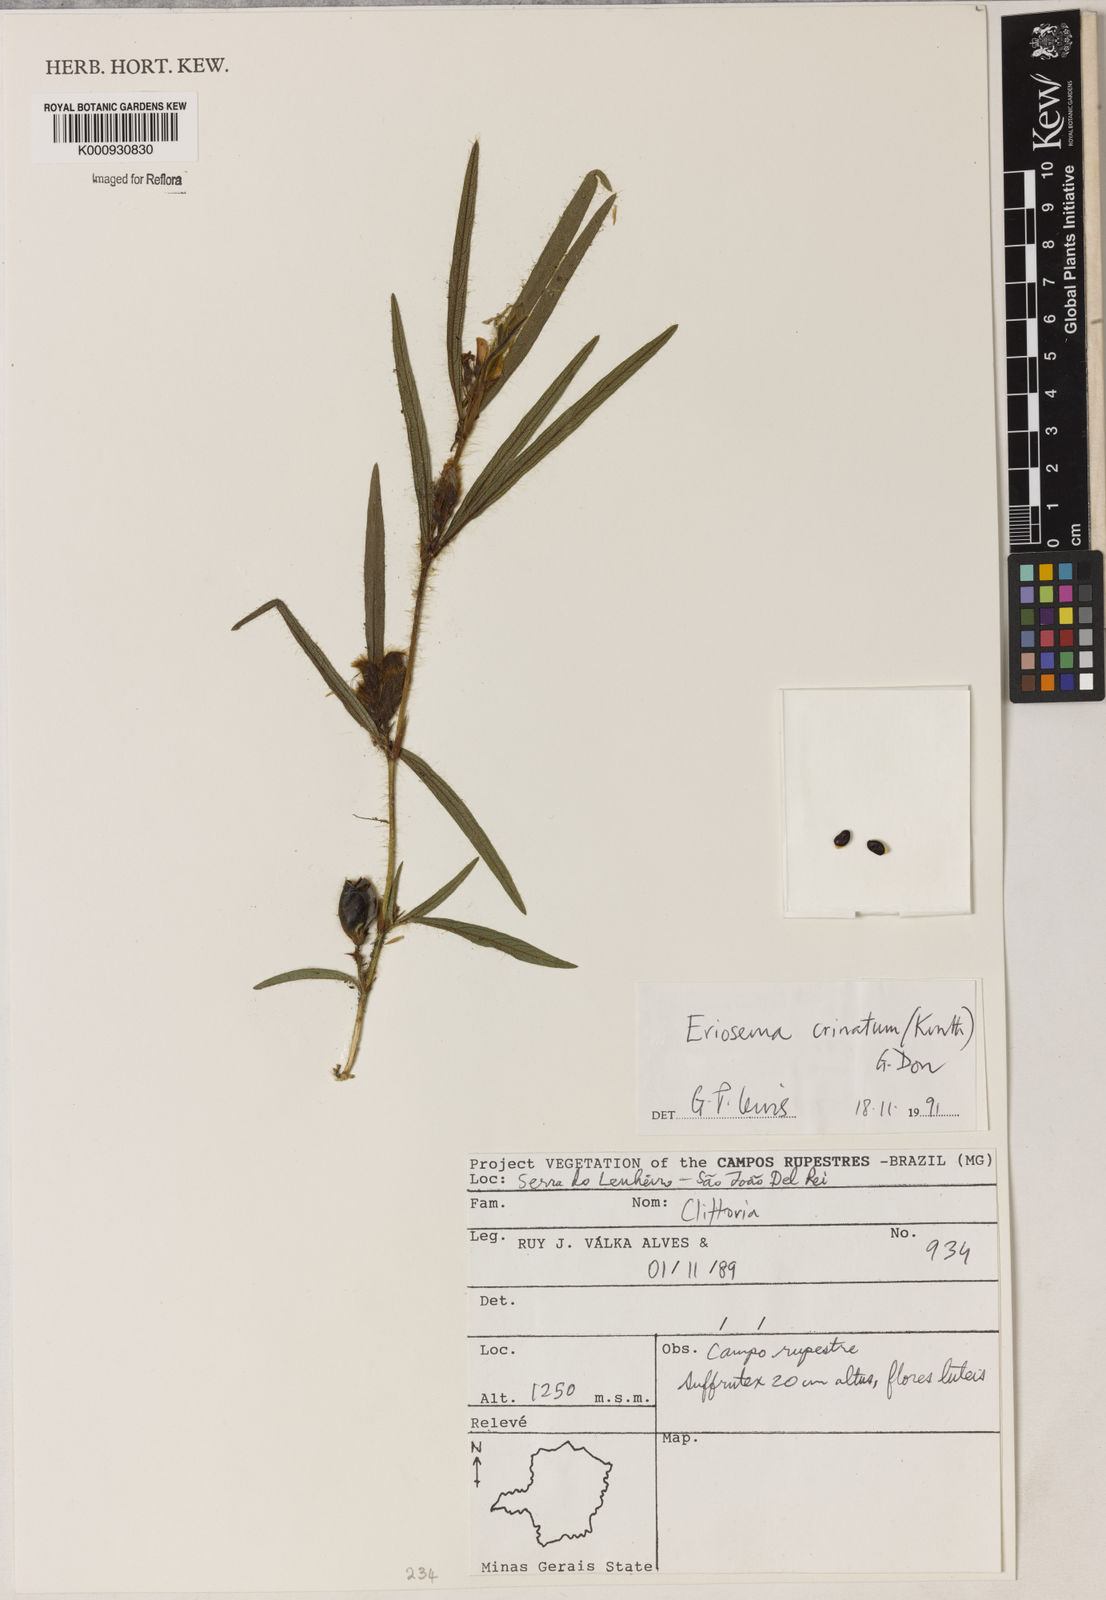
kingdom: Plantae
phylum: Tracheophyta
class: Magnoliopsida
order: Fabales
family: Fabaceae
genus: Eriosema
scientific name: Eriosema crinitum
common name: Sand pea
